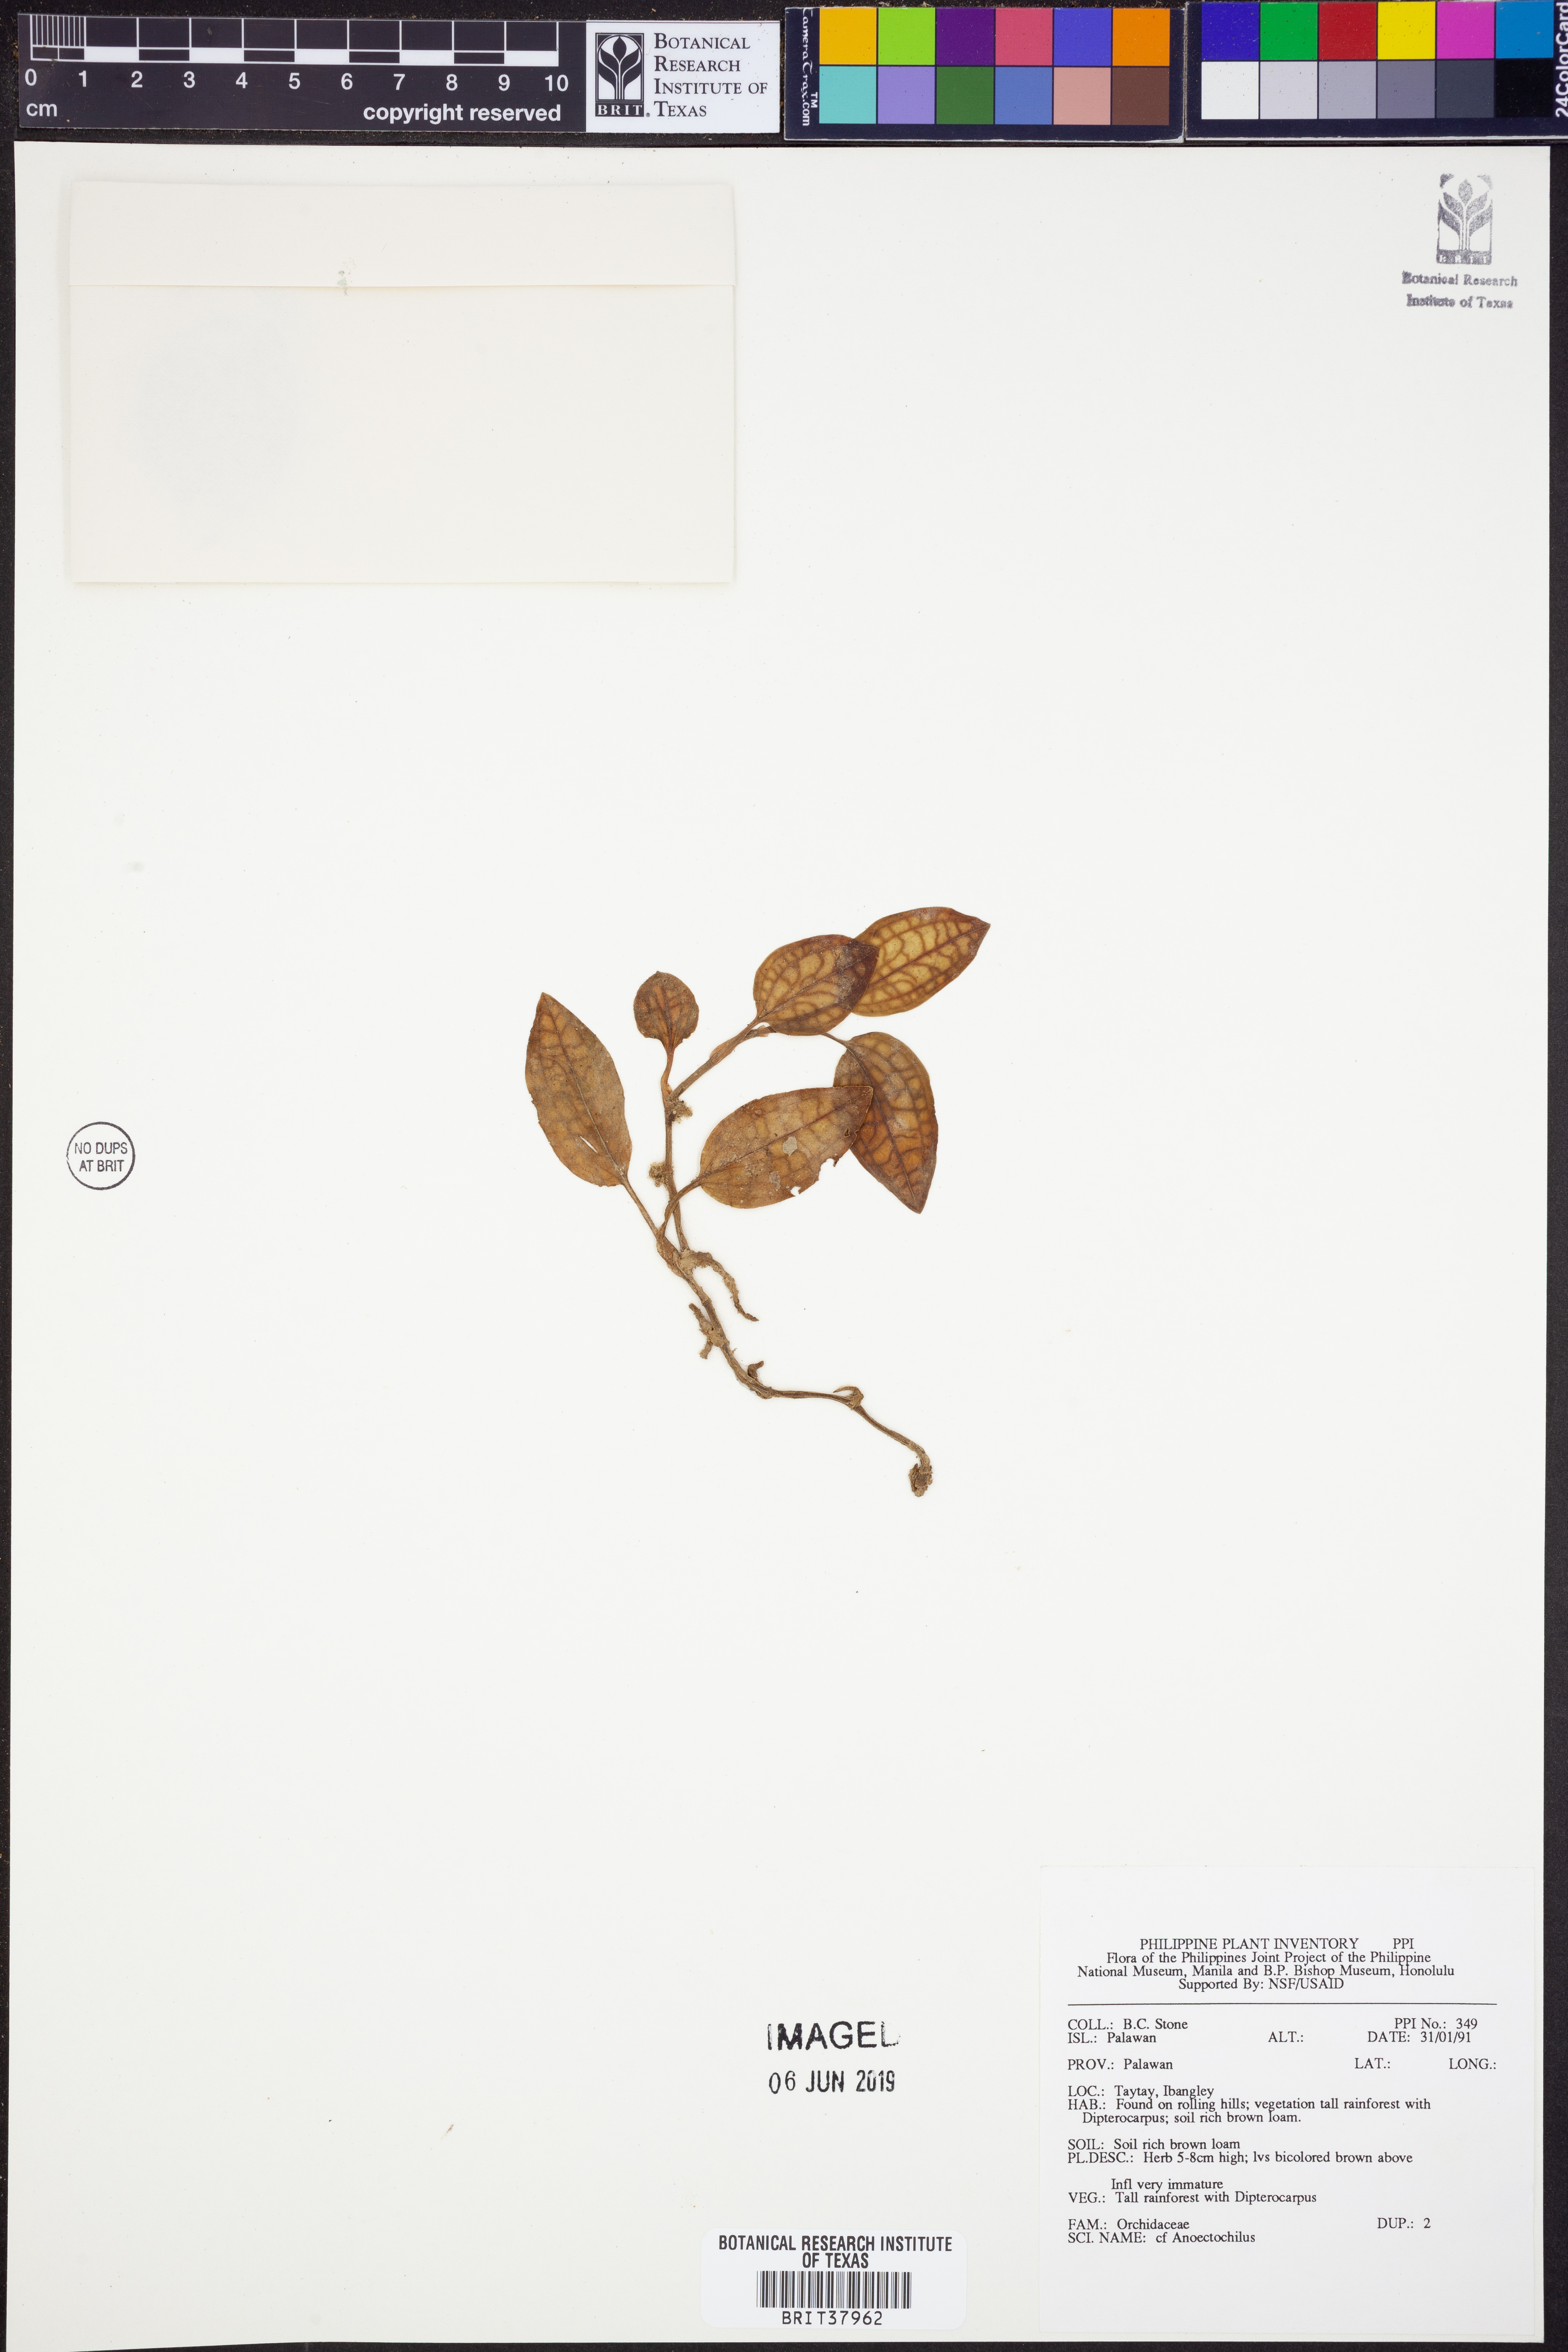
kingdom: Plantae
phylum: Tracheophyta
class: Liliopsida
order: Asparagales
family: Orchidaceae
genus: Anoectochilus
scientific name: Anoectochilus
